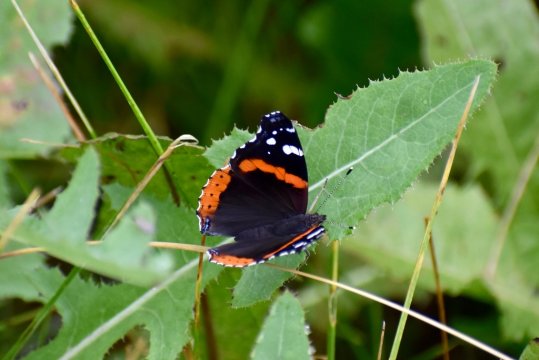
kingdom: Animalia
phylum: Arthropoda
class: Insecta
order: Lepidoptera
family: Nymphalidae
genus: Vanessa
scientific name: Vanessa atalanta
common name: Red Admiral
